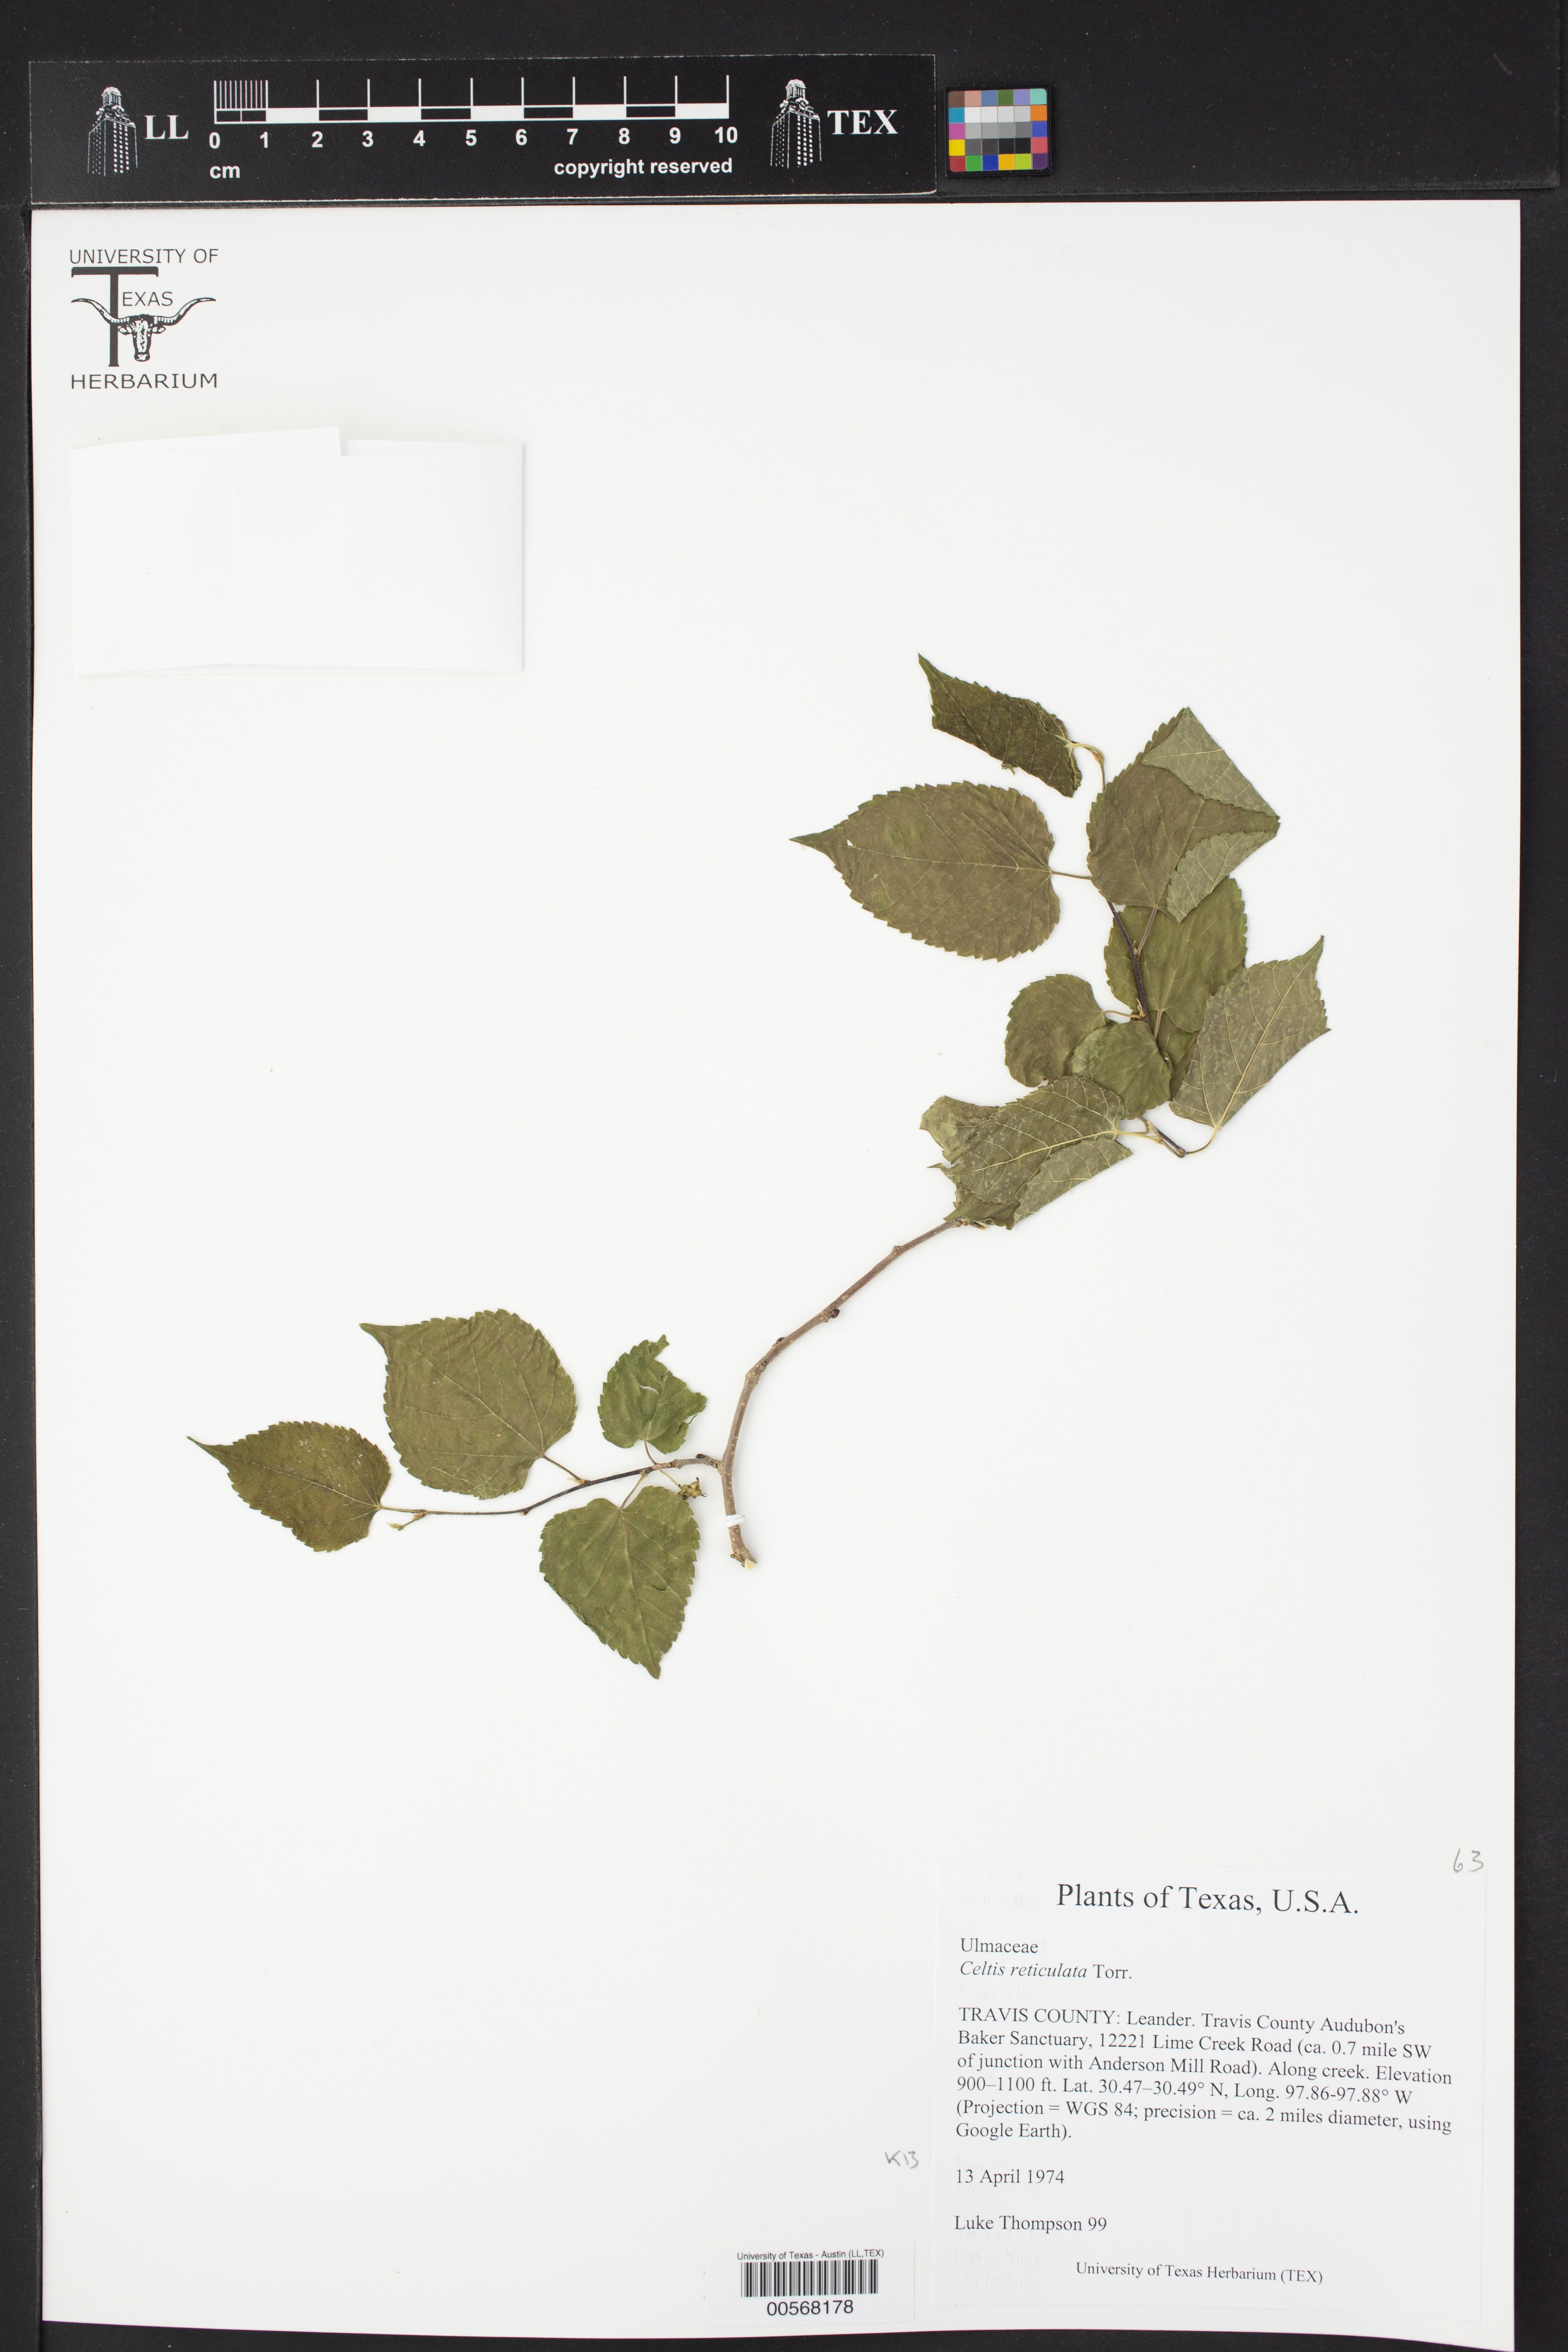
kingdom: Plantae
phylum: Tracheophyta
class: Magnoliopsida
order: Rosales
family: Cannabaceae
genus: Celtis
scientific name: Celtis reticulata
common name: Netleaf hackberry
